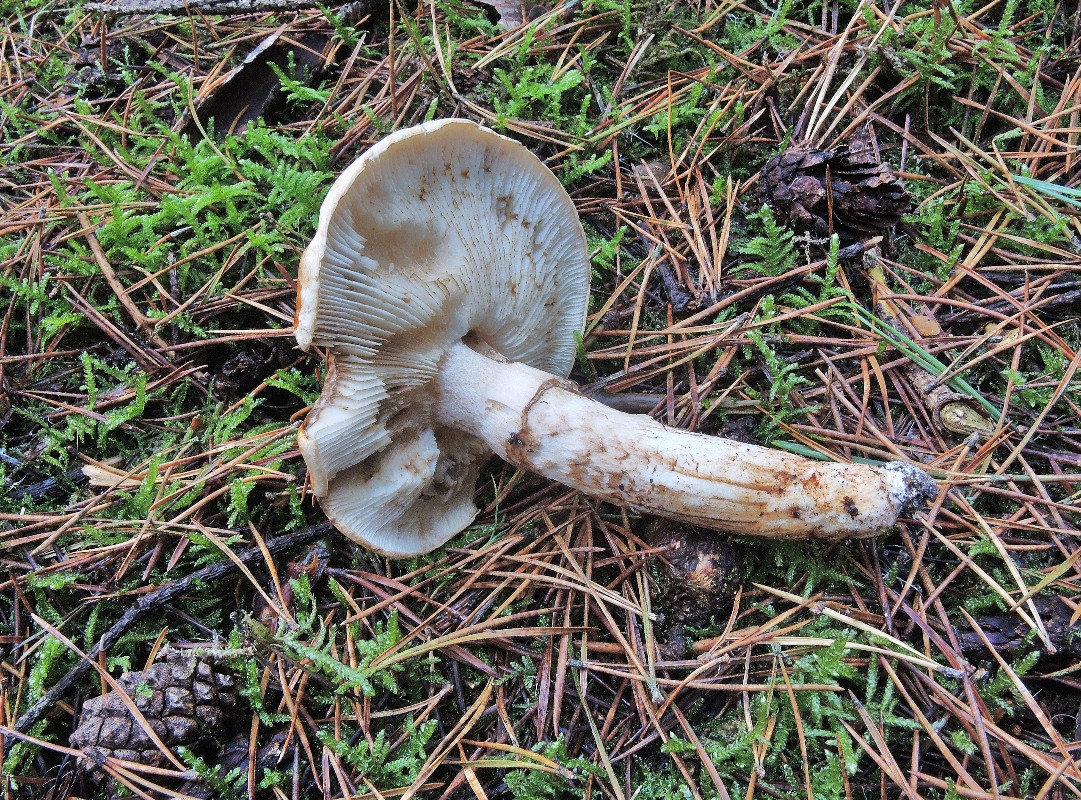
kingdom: Fungi
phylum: Basidiomycota
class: Agaricomycetes
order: Agaricales
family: Tricholomataceae
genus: Tricholoma
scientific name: Tricholoma focale
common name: halsbånd-ridderhat
